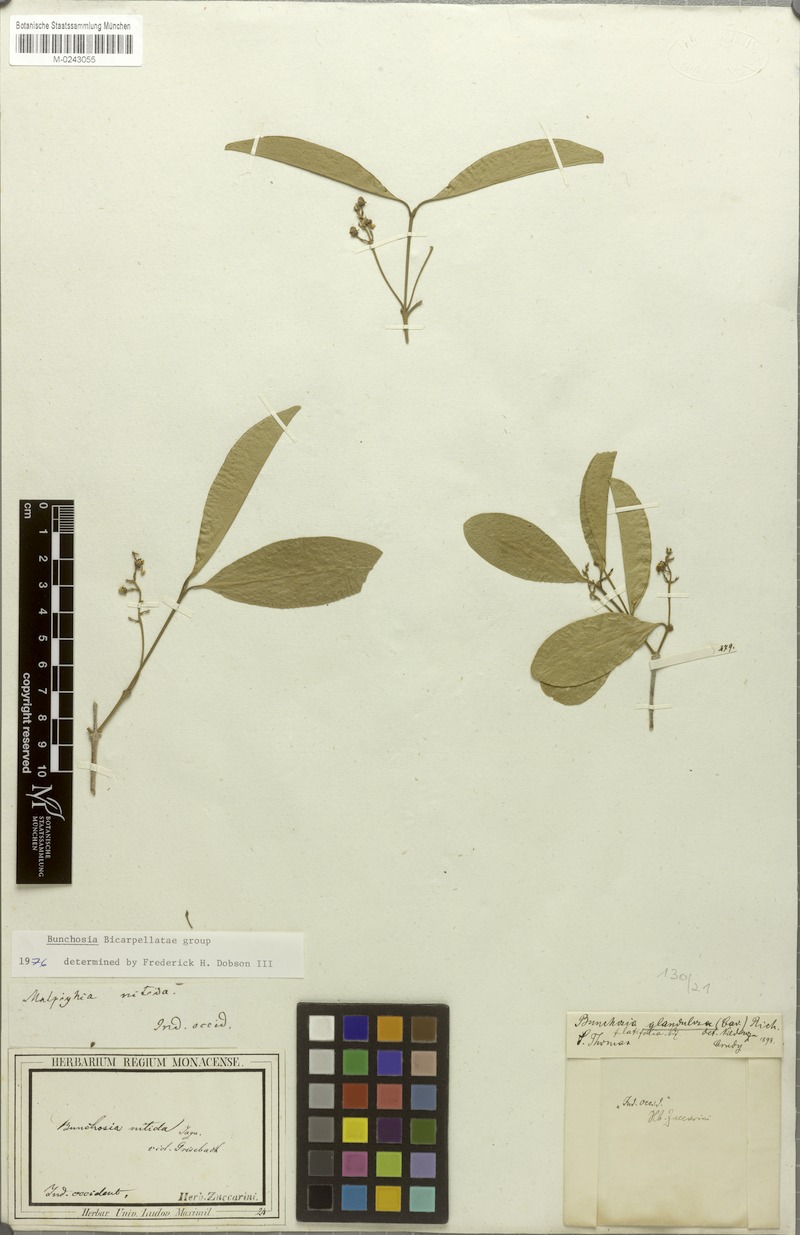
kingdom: Plantae
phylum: Tracheophyta
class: Magnoliopsida
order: Malpighiales
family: Malpighiaceae
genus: Bunchosia
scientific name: Bunchosia glandulosa
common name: Cafe forastero
